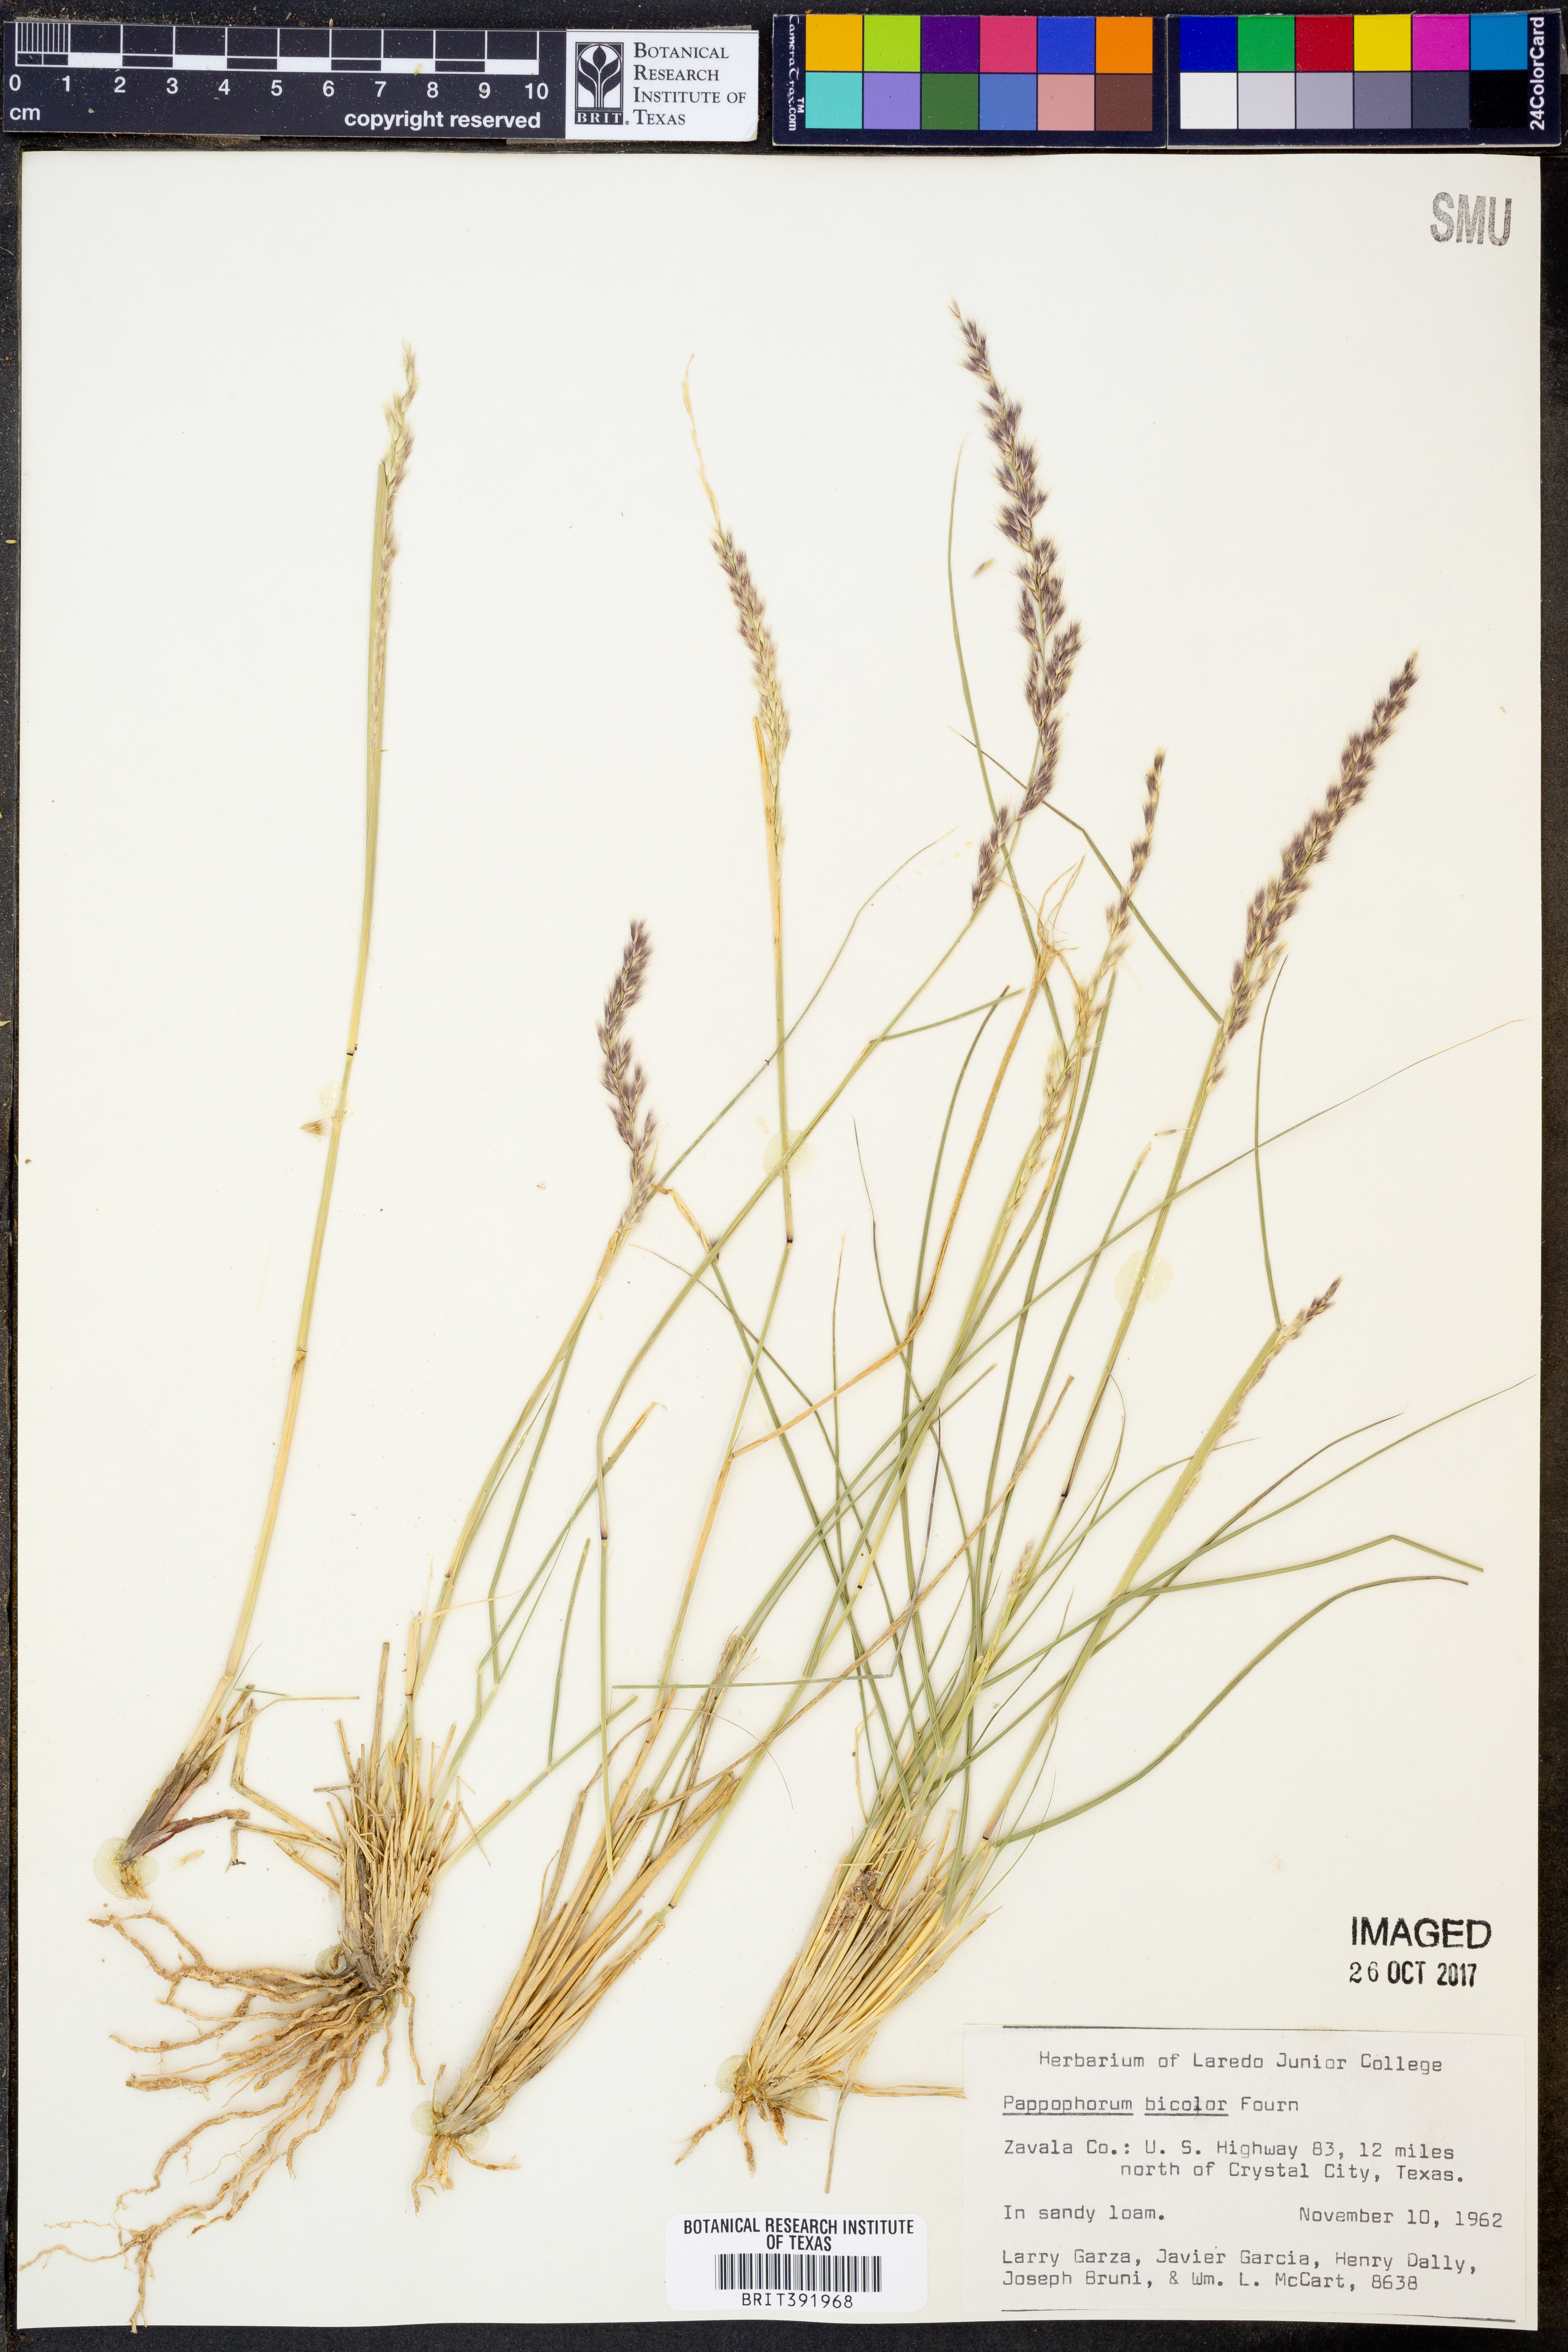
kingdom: Plantae
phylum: Tracheophyta
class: Liliopsida
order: Poales
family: Poaceae
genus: Pappophorum
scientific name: Pappophorum bicolor
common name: Pink pappus grass
